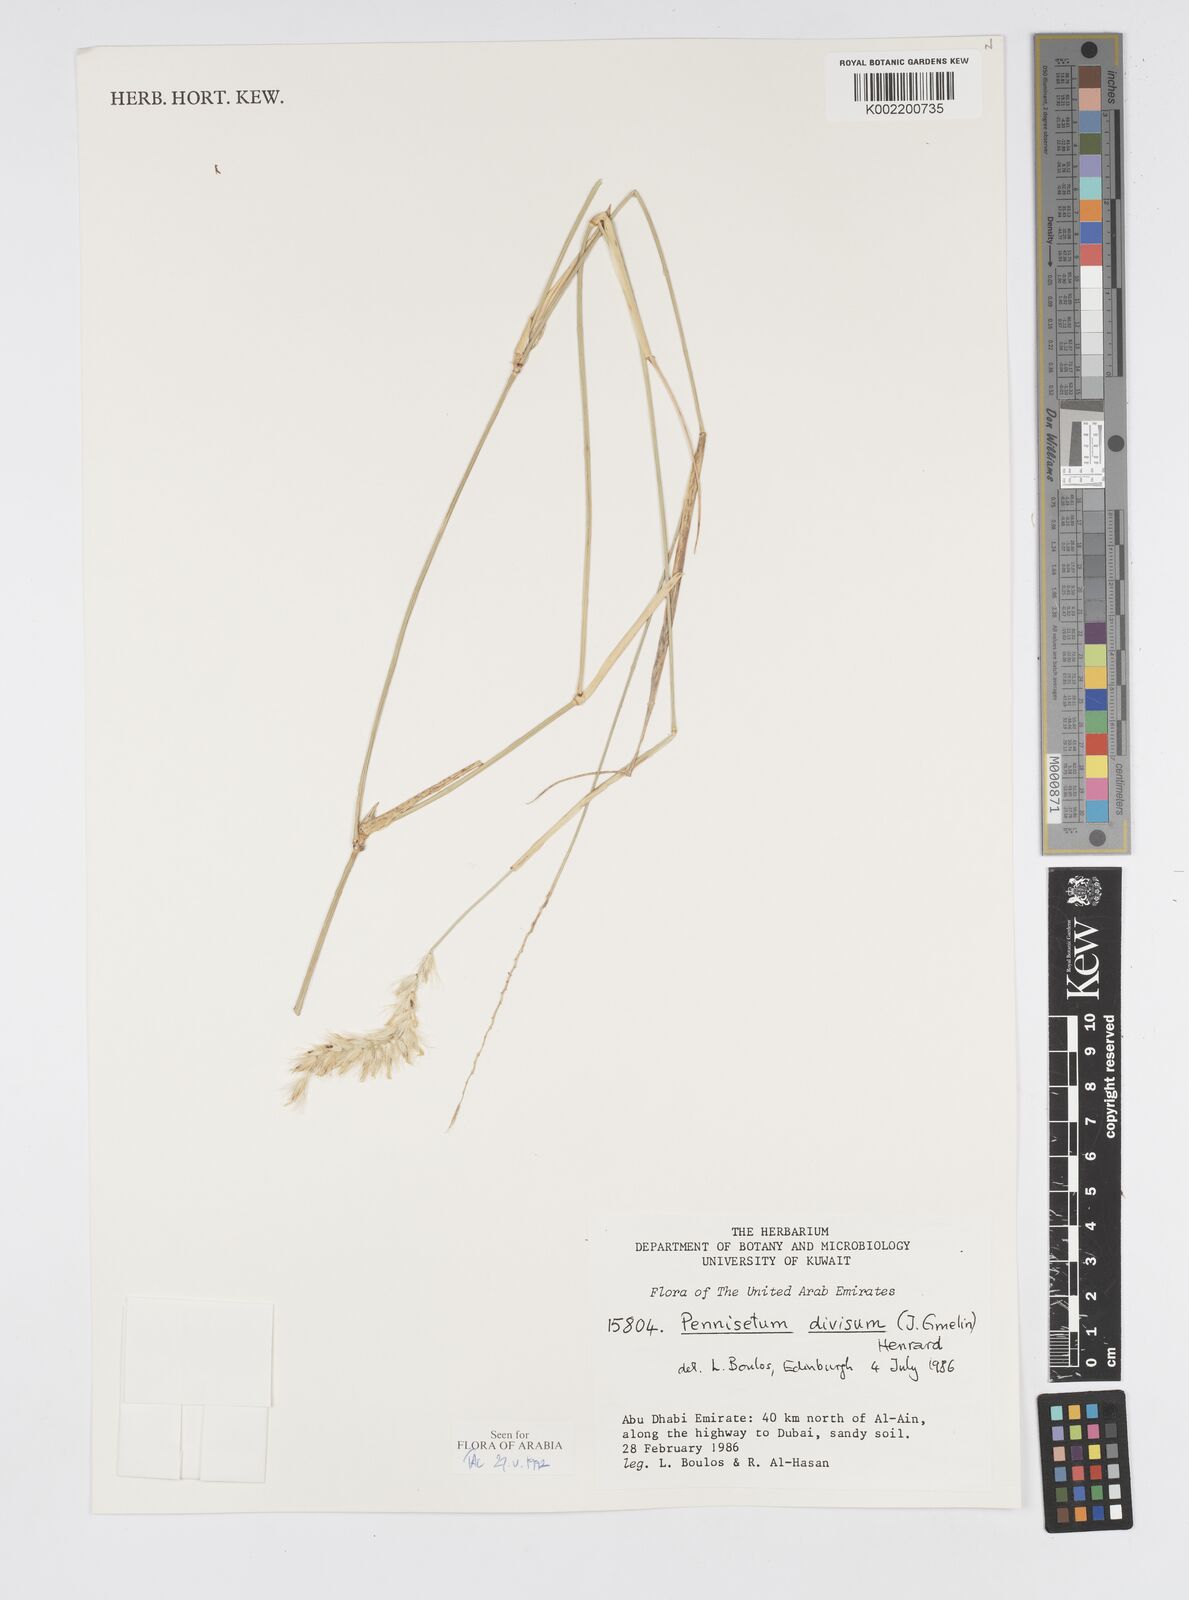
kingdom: Plantae
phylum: Tracheophyta
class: Liliopsida
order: Poales
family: Poaceae
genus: Cenchrus
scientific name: Cenchrus divisus
